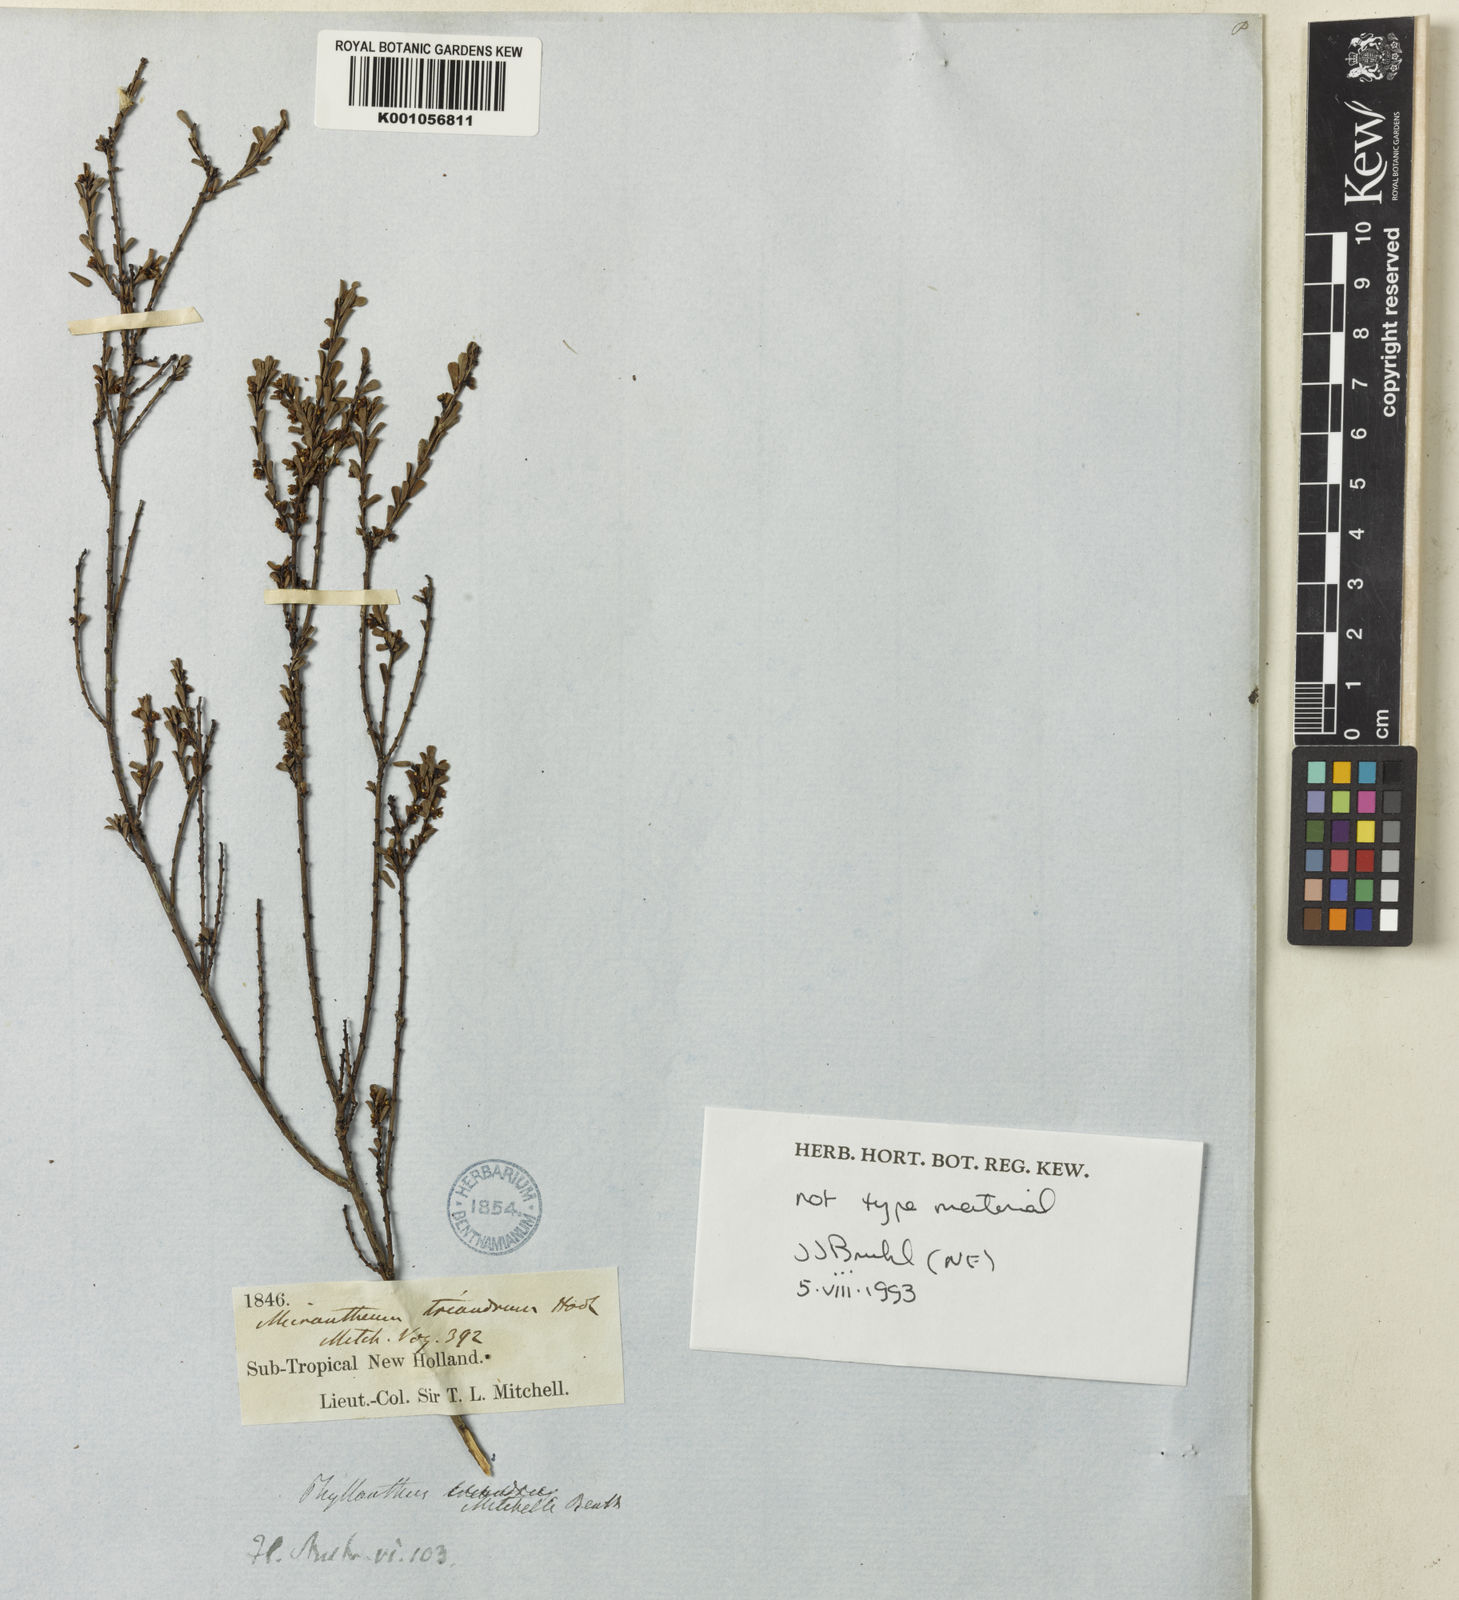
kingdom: Plantae
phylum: Tracheophyta
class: Magnoliopsida
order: Malpighiales
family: Phyllanthaceae
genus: Phyllanthus
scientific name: Phyllanthus mitchellii
